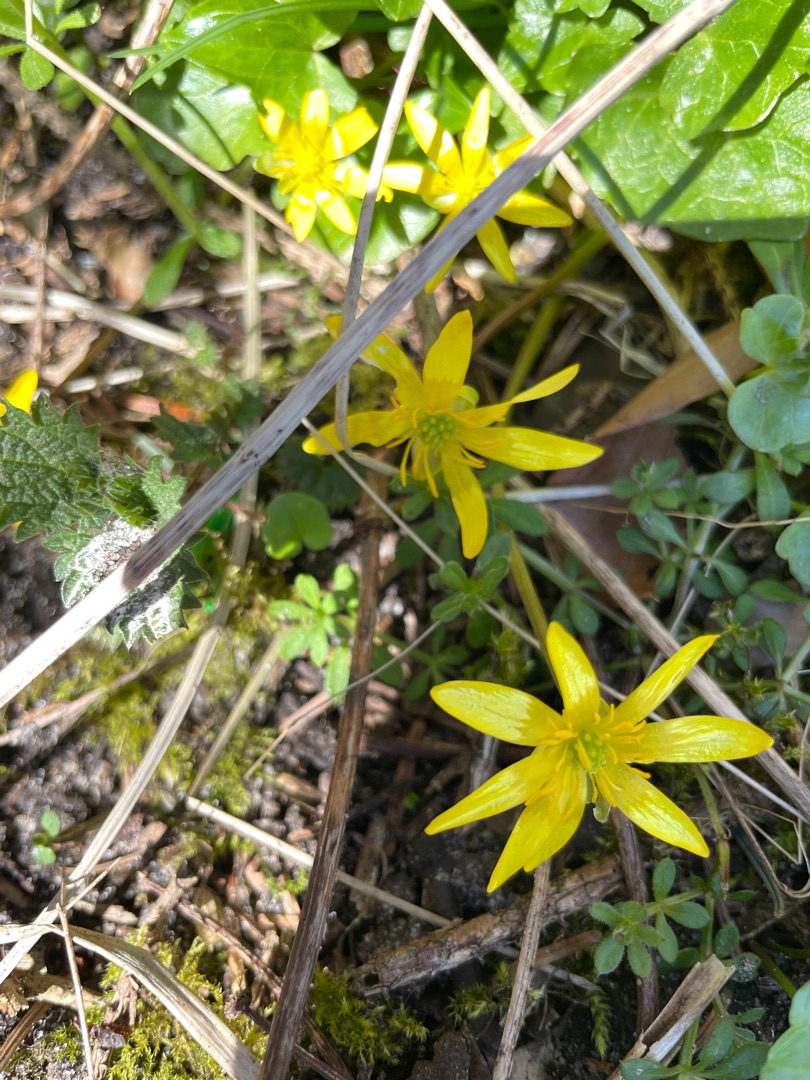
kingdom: Plantae
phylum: Tracheophyta
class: Magnoliopsida
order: Ranunculales
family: Ranunculaceae
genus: Ficaria
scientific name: Ficaria verna
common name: Vorterod
